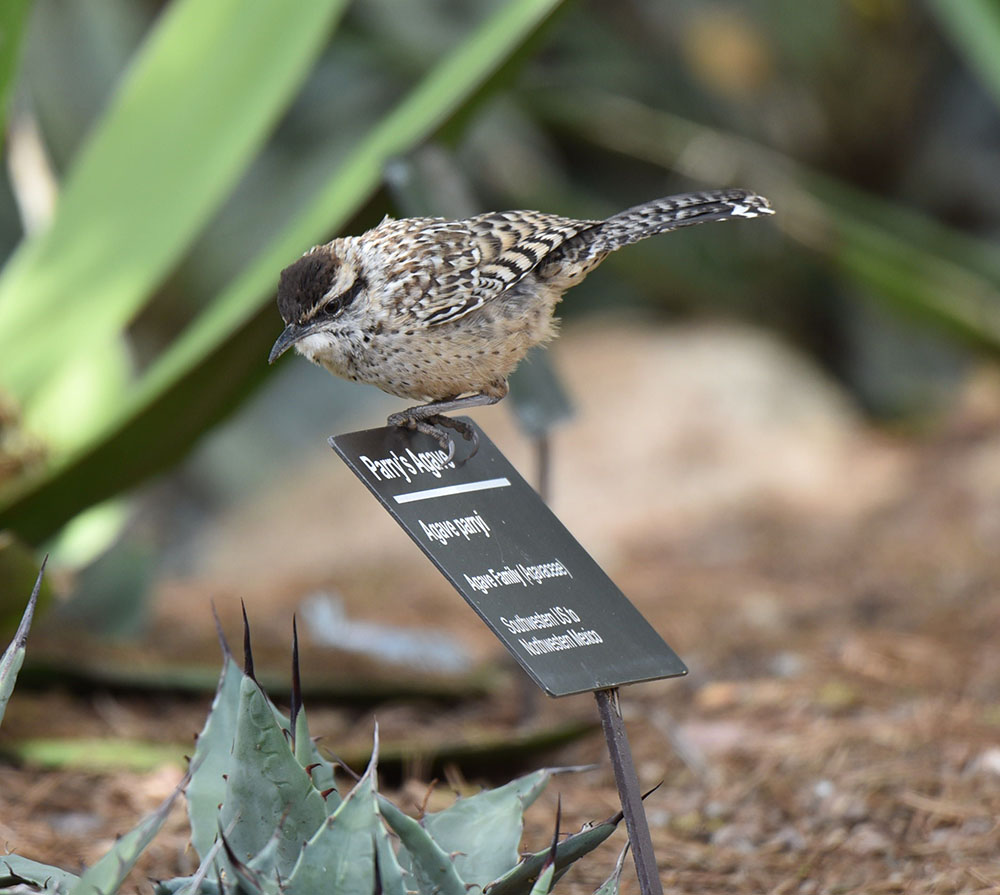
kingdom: Animalia
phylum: Chordata
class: Aves
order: Passeriformes
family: Troglodytidae
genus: Campylorhynchus
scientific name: Campylorhynchus brunneicapillus
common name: Cactus wren
